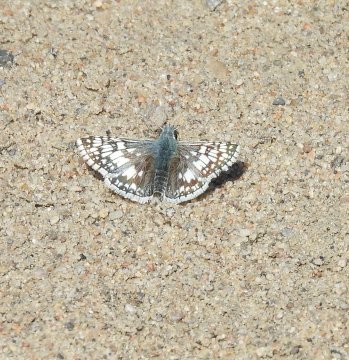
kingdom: Animalia
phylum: Arthropoda
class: Insecta
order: Lepidoptera
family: Hesperiidae
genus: Pyrgus
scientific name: Pyrgus communis
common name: Common Checkered-Skipper
